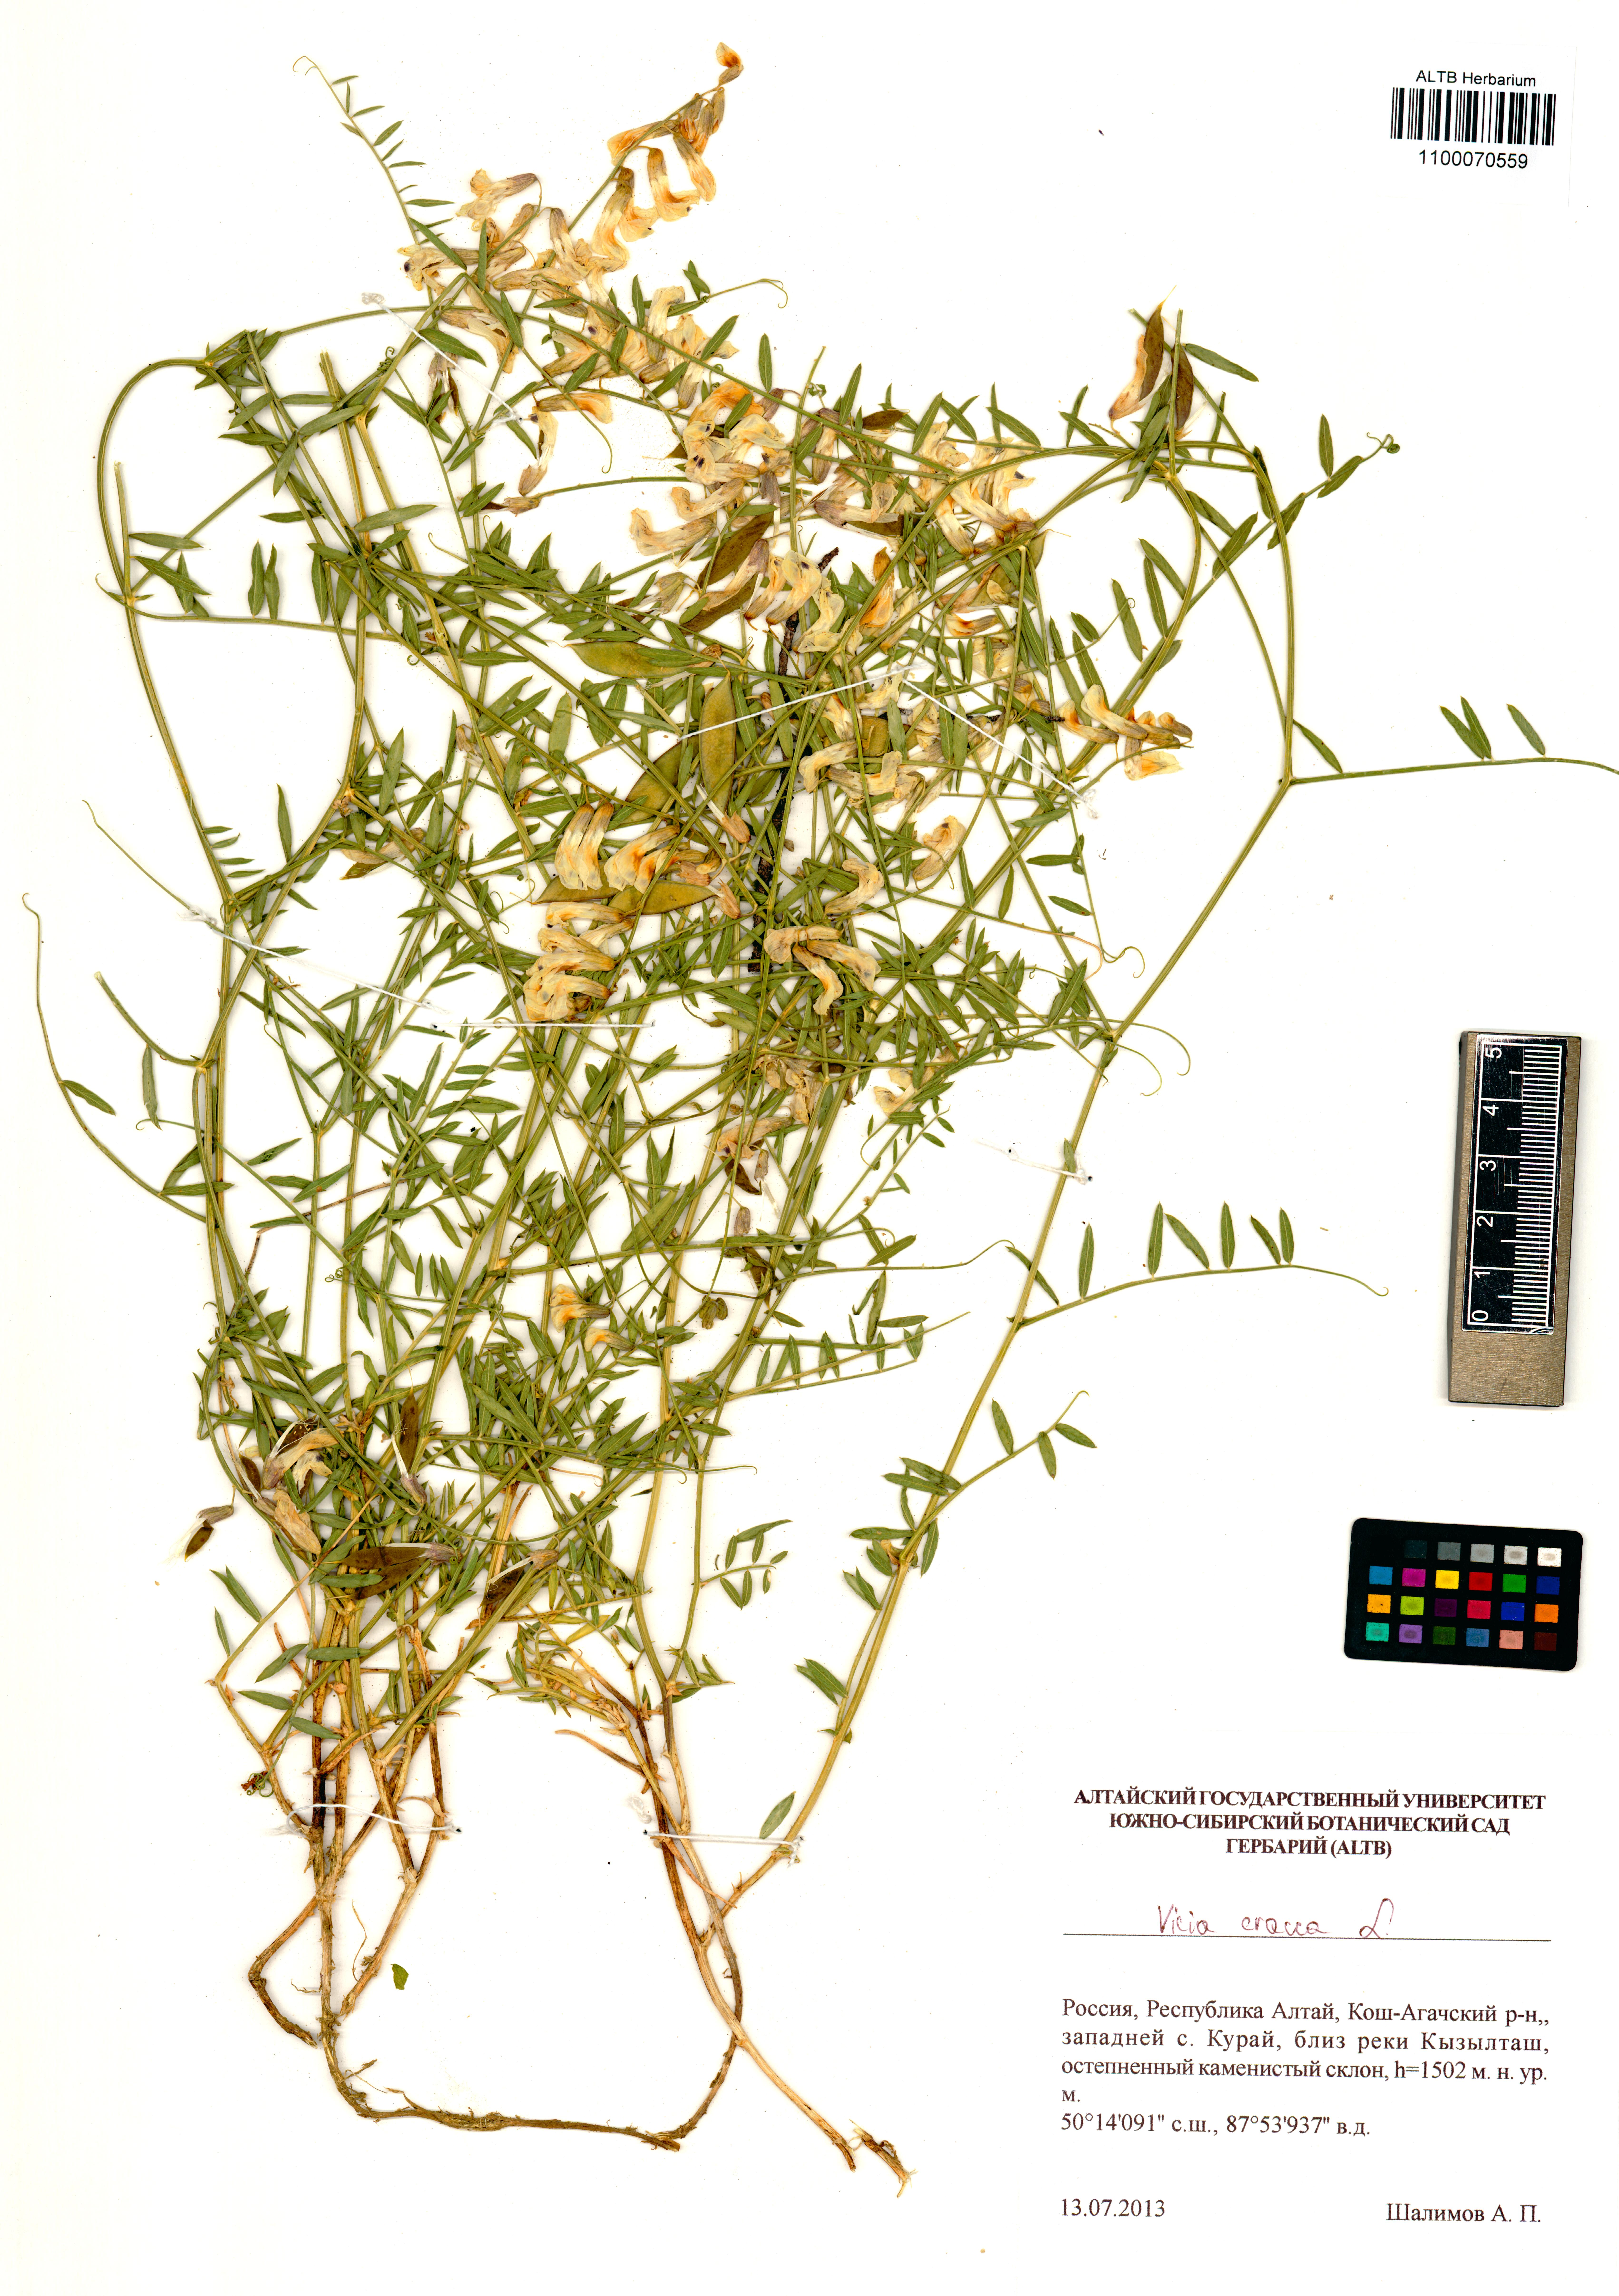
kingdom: Plantae
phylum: Tracheophyta
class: Magnoliopsida
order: Fabales
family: Fabaceae
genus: Vicia
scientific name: Vicia costata
